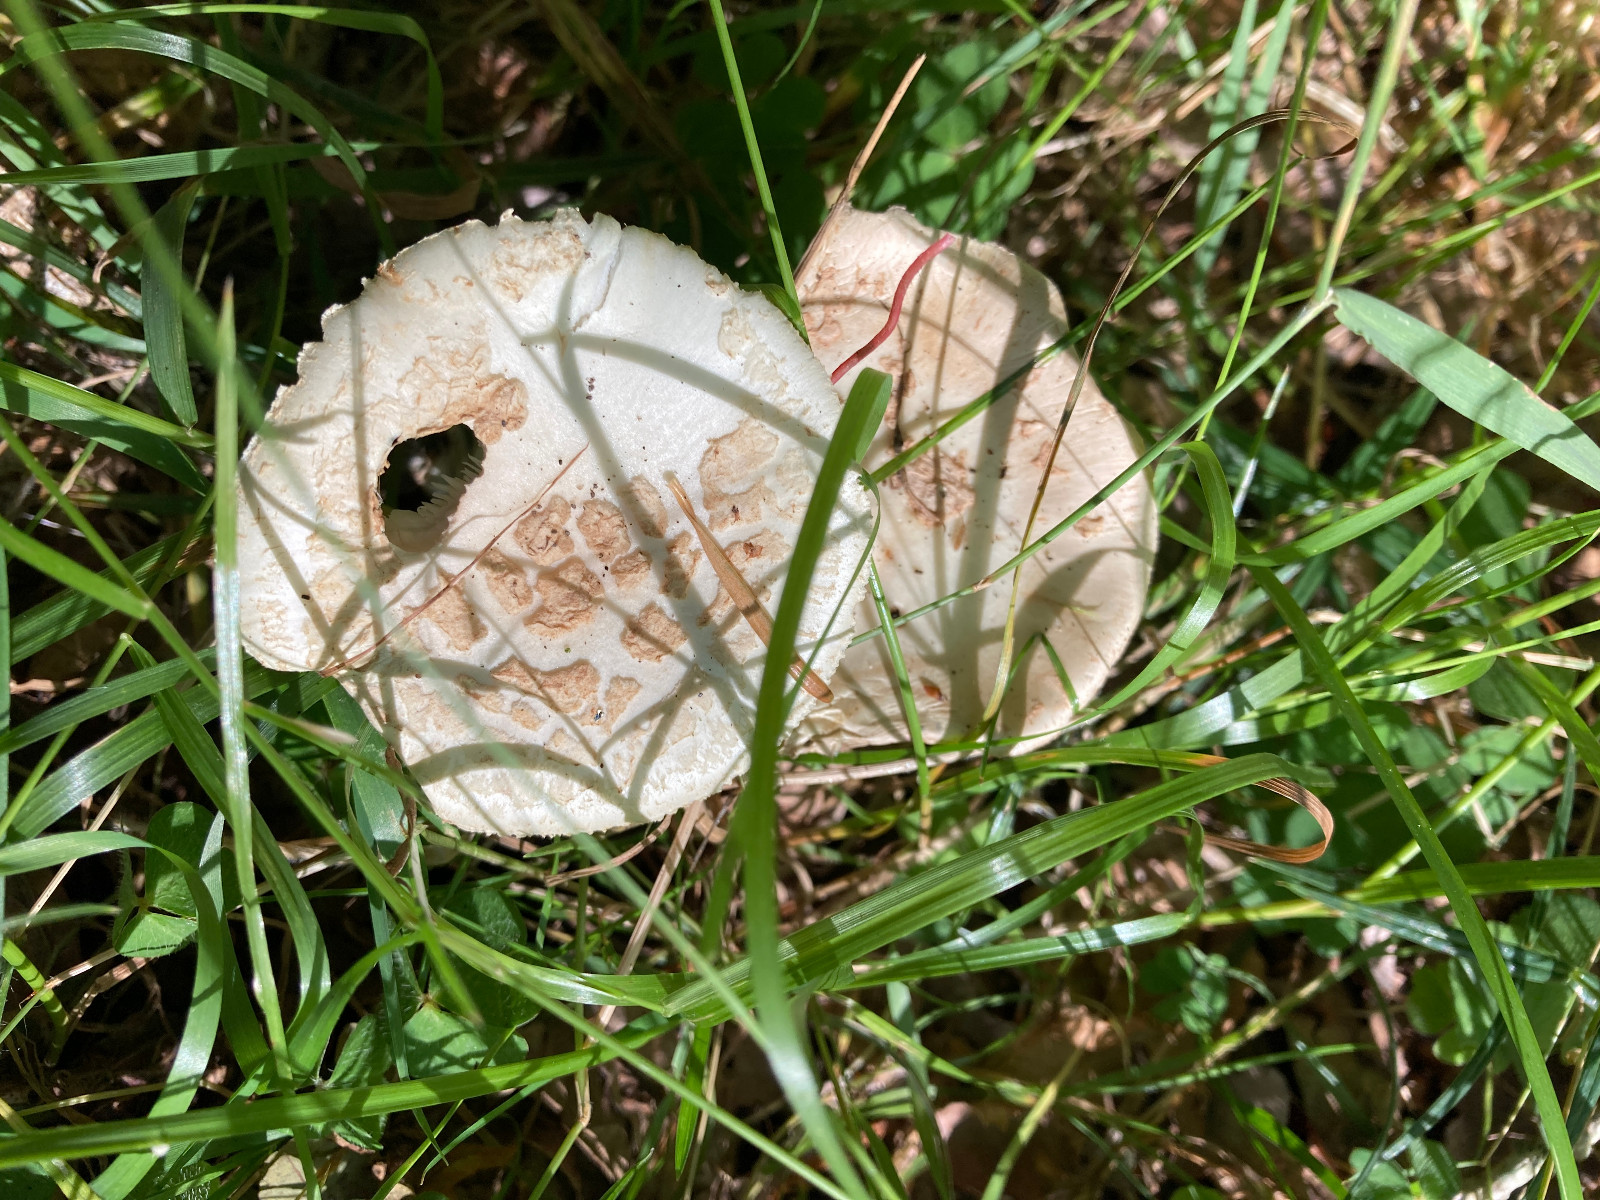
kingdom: Fungi
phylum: Basidiomycota
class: Agaricomycetes
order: Agaricales
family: Amanitaceae
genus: Amanita
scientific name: Amanita citrina
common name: kugleknoldet fluesvamp
